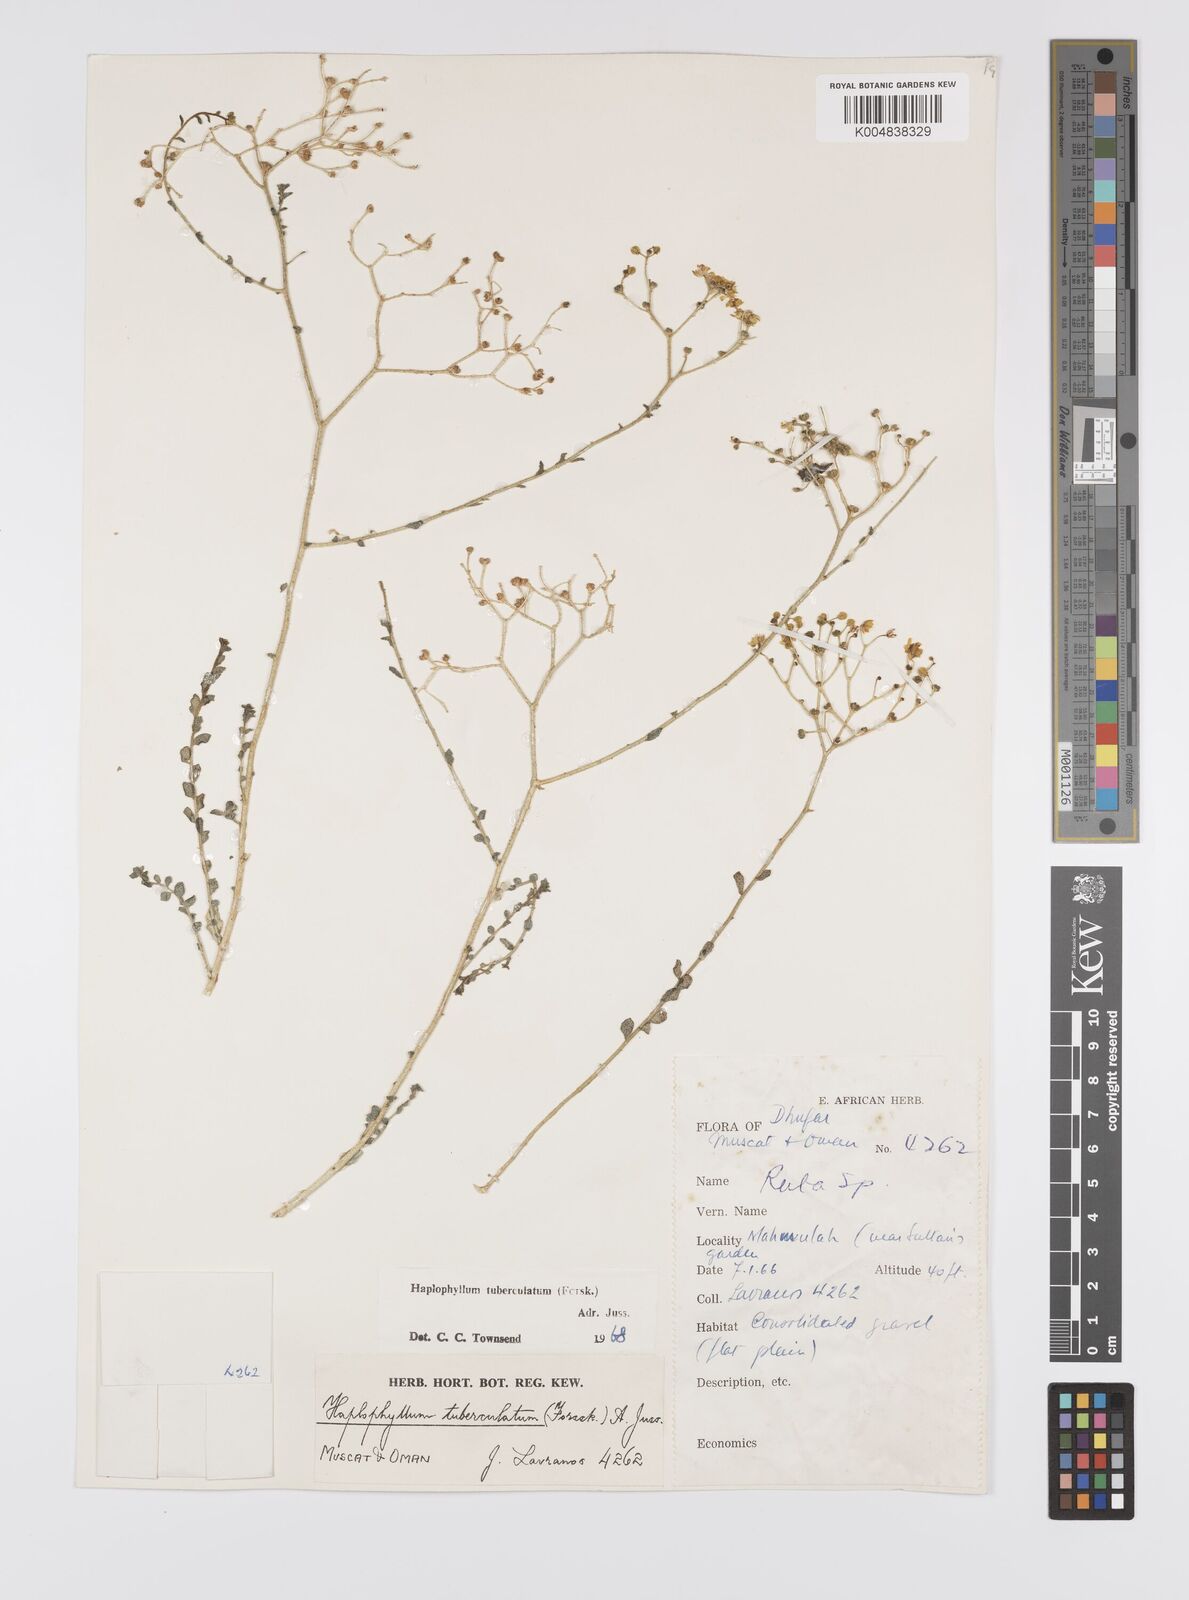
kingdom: Plantae
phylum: Tracheophyta
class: Magnoliopsida
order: Sapindales
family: Rutaceae
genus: Haplophyllum
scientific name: Haplophyllum tuberculatum
